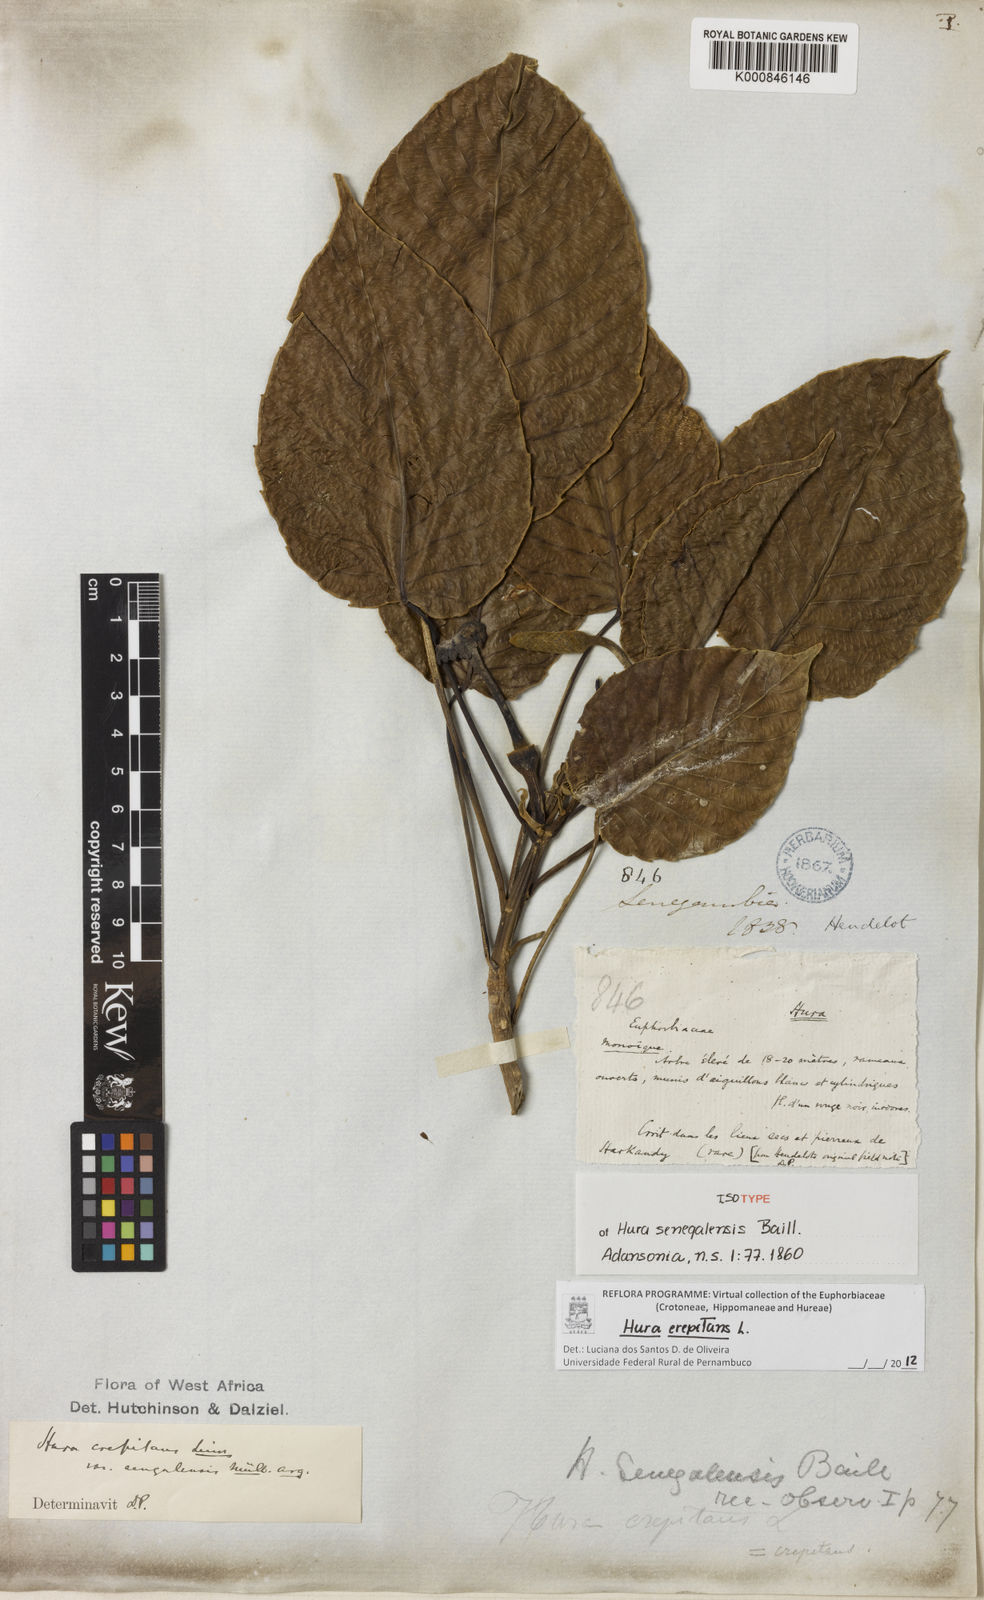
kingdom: Plantae
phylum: Tracheophyta
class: Magnoliopsida
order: Malpighiales
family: Euphorbiaceae
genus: Hura
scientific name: Hura crepitans
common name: Sandboxtree
